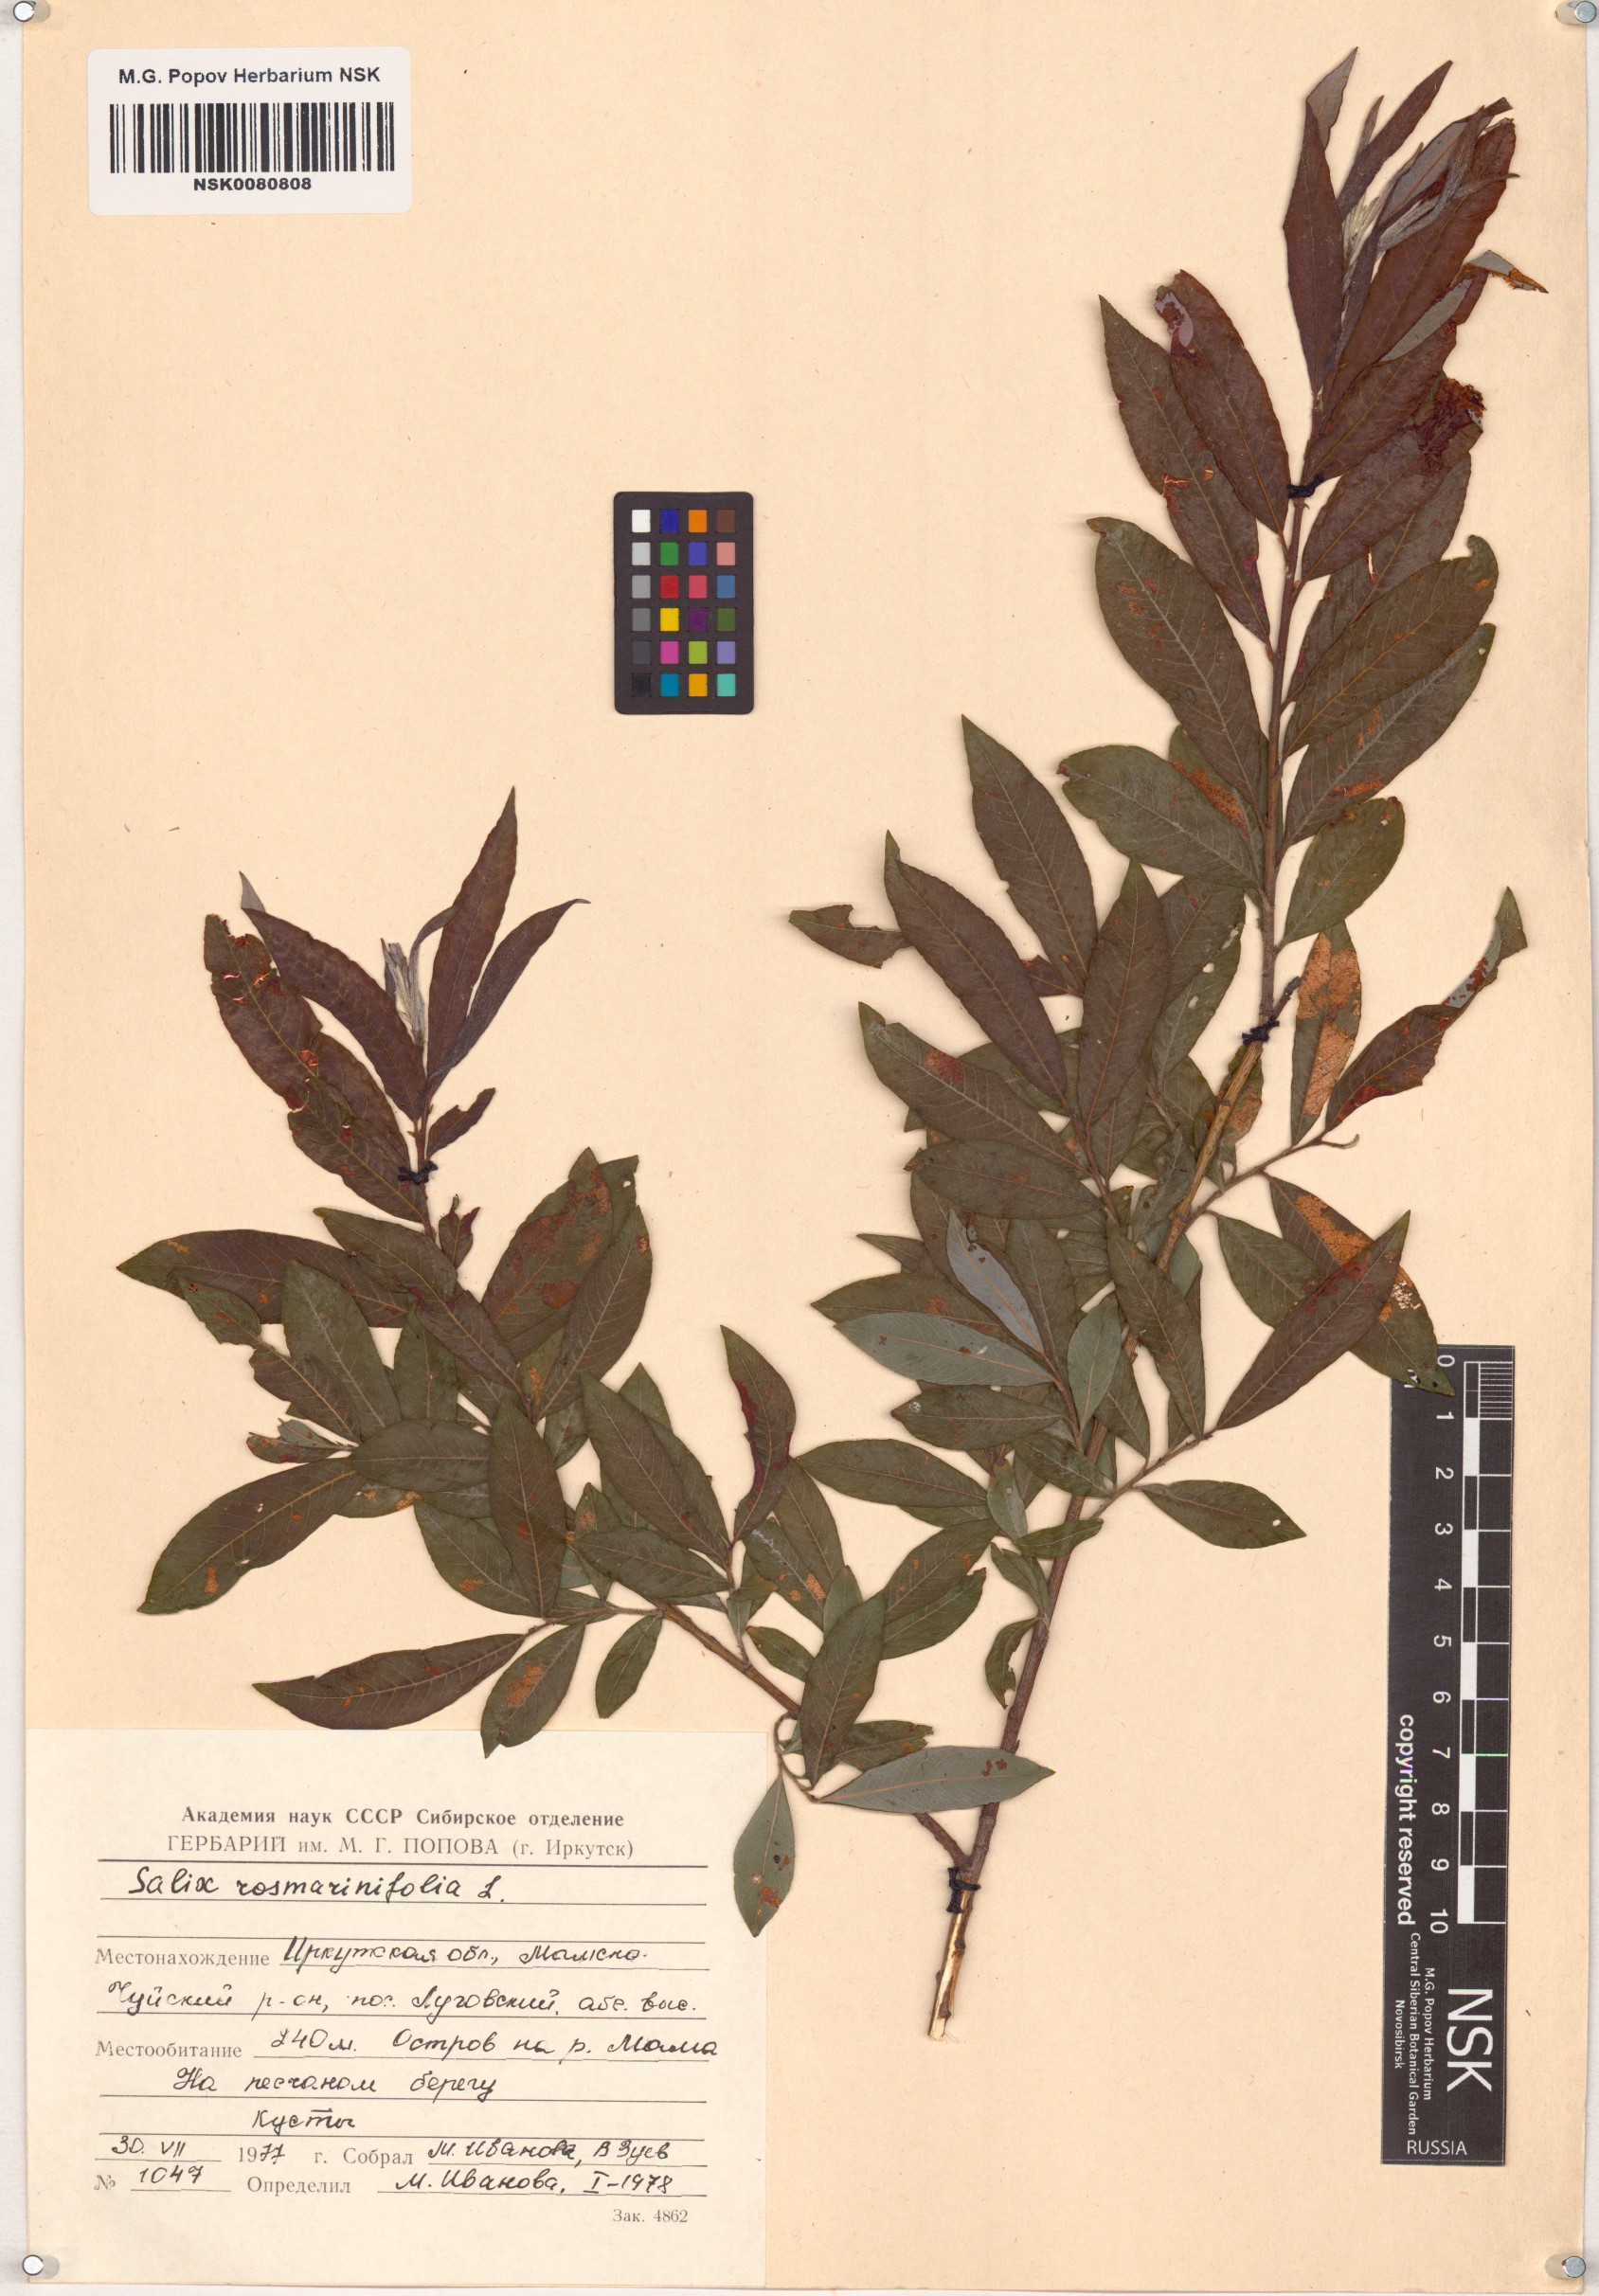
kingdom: Plantae
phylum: Tracheophyta
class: Magnoliopsida
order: Malpighiales
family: Salicaceae
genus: Salix
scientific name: Salix rosmarinifolia
